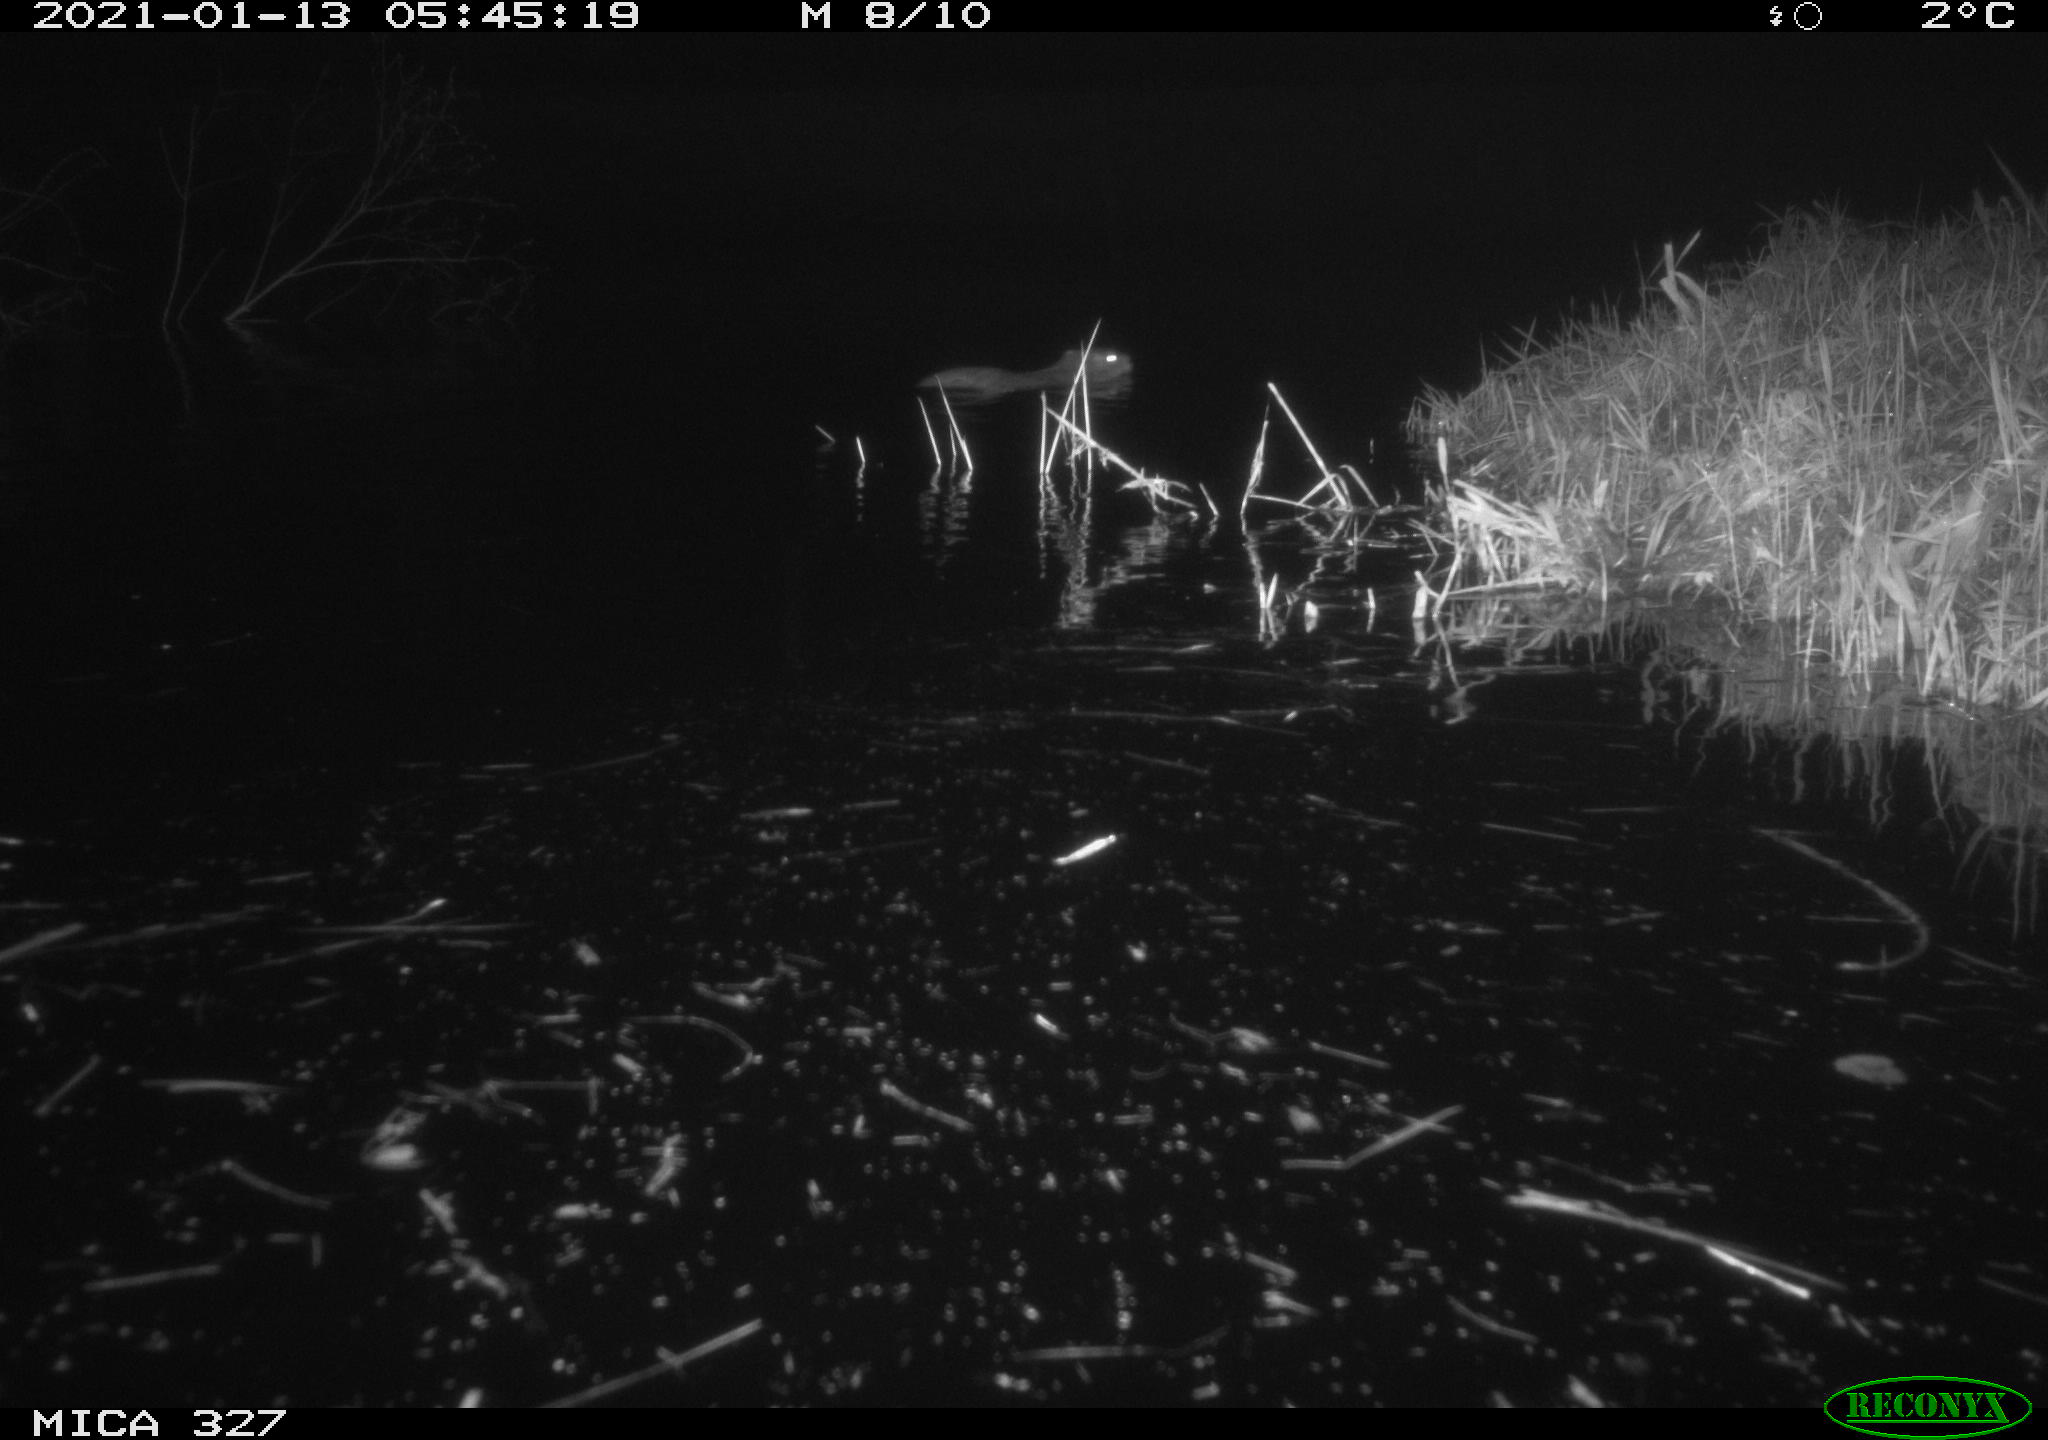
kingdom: Animalia
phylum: Chordata
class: Mammalia
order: Rodentia
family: Cricetidae
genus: Ondatra
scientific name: Ondatra zibethicus
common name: Muskrat
